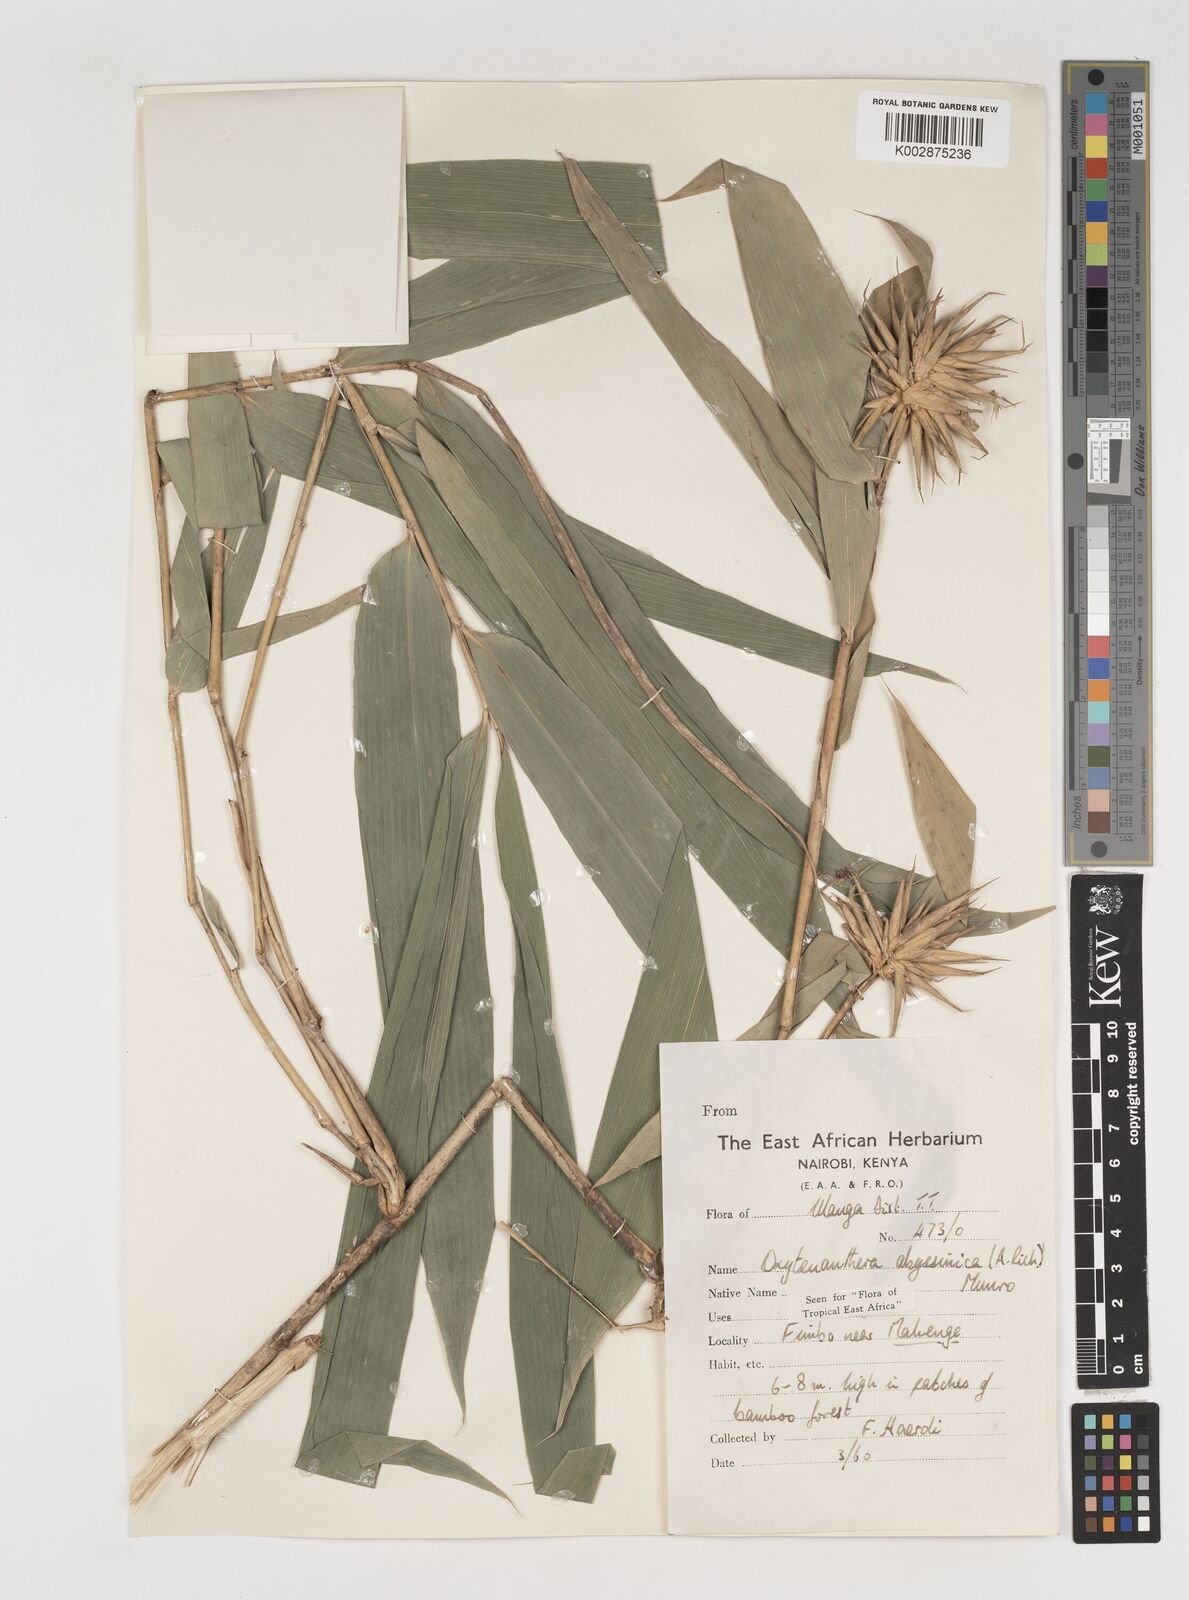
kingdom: Plantae
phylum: Tracheophyta
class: Liliopsida
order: Poales
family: Poaceae
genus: Oxytenanthera
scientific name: Oxytenanthera abyssinica
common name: Wine bamboo
